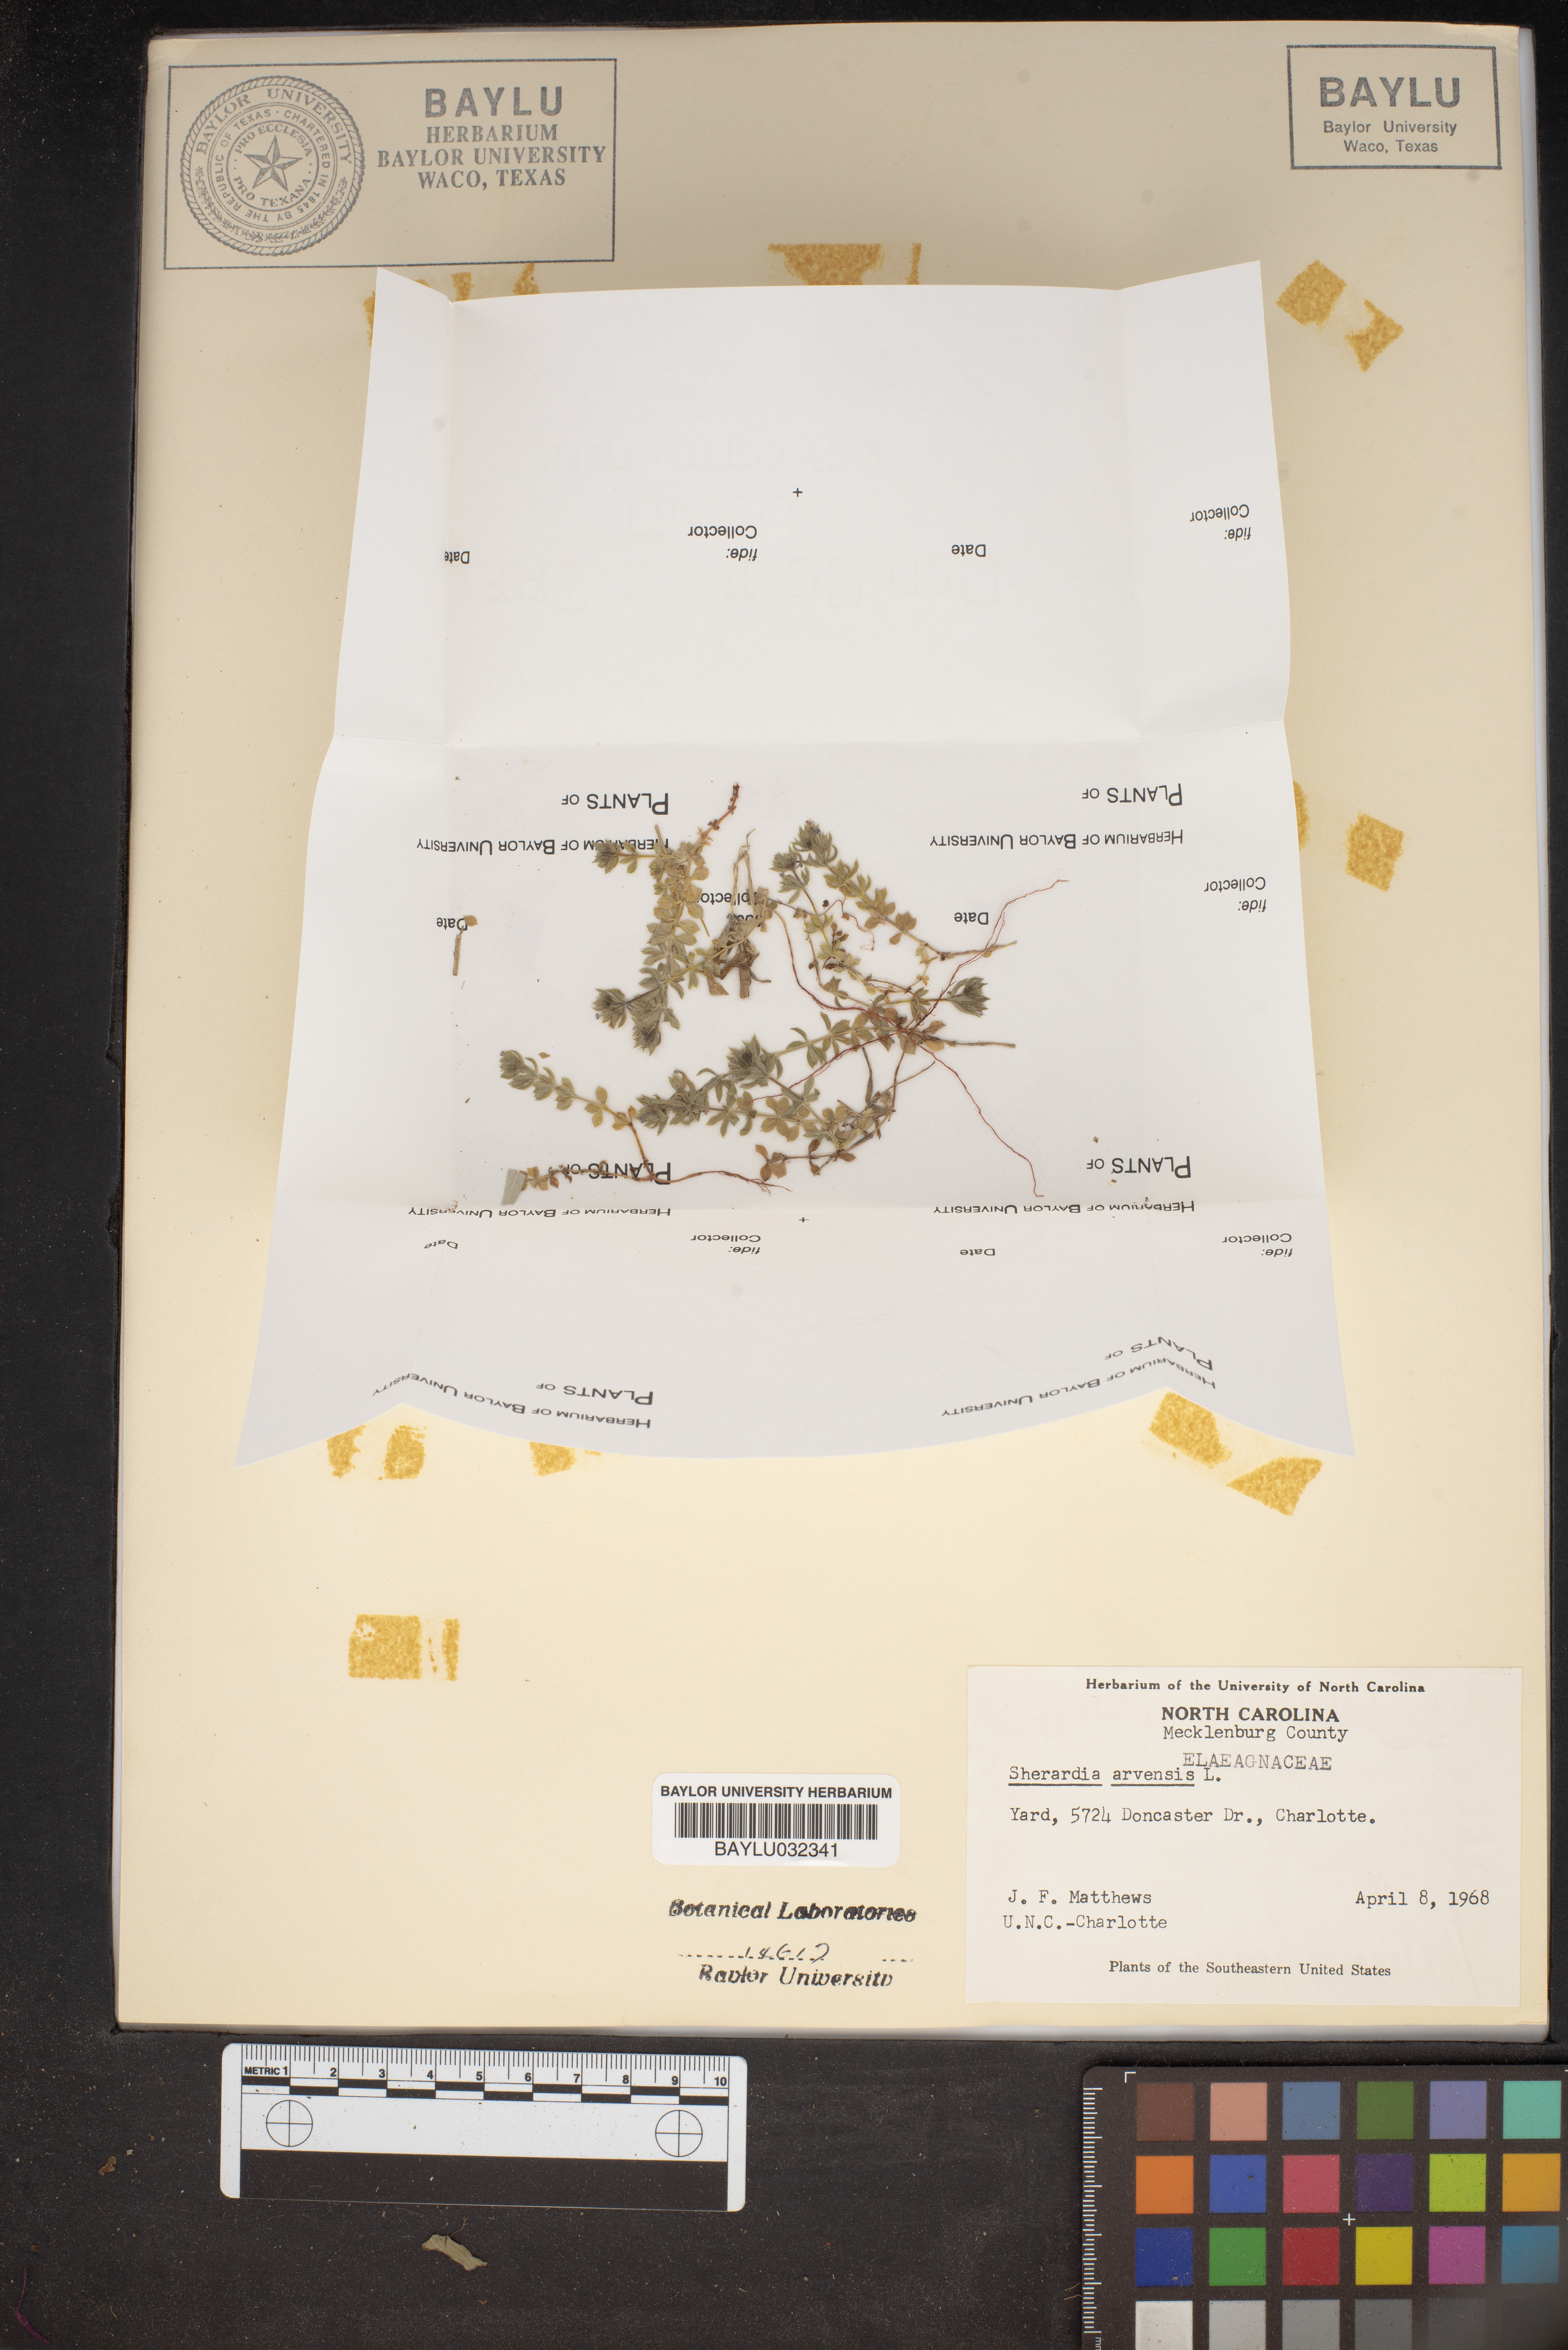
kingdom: Plantae
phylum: Tracheophyta
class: Magnoliopsida
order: Gentianales
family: Rubiaceae
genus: Sherardia
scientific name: Sherardia arvensis
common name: Field madder
